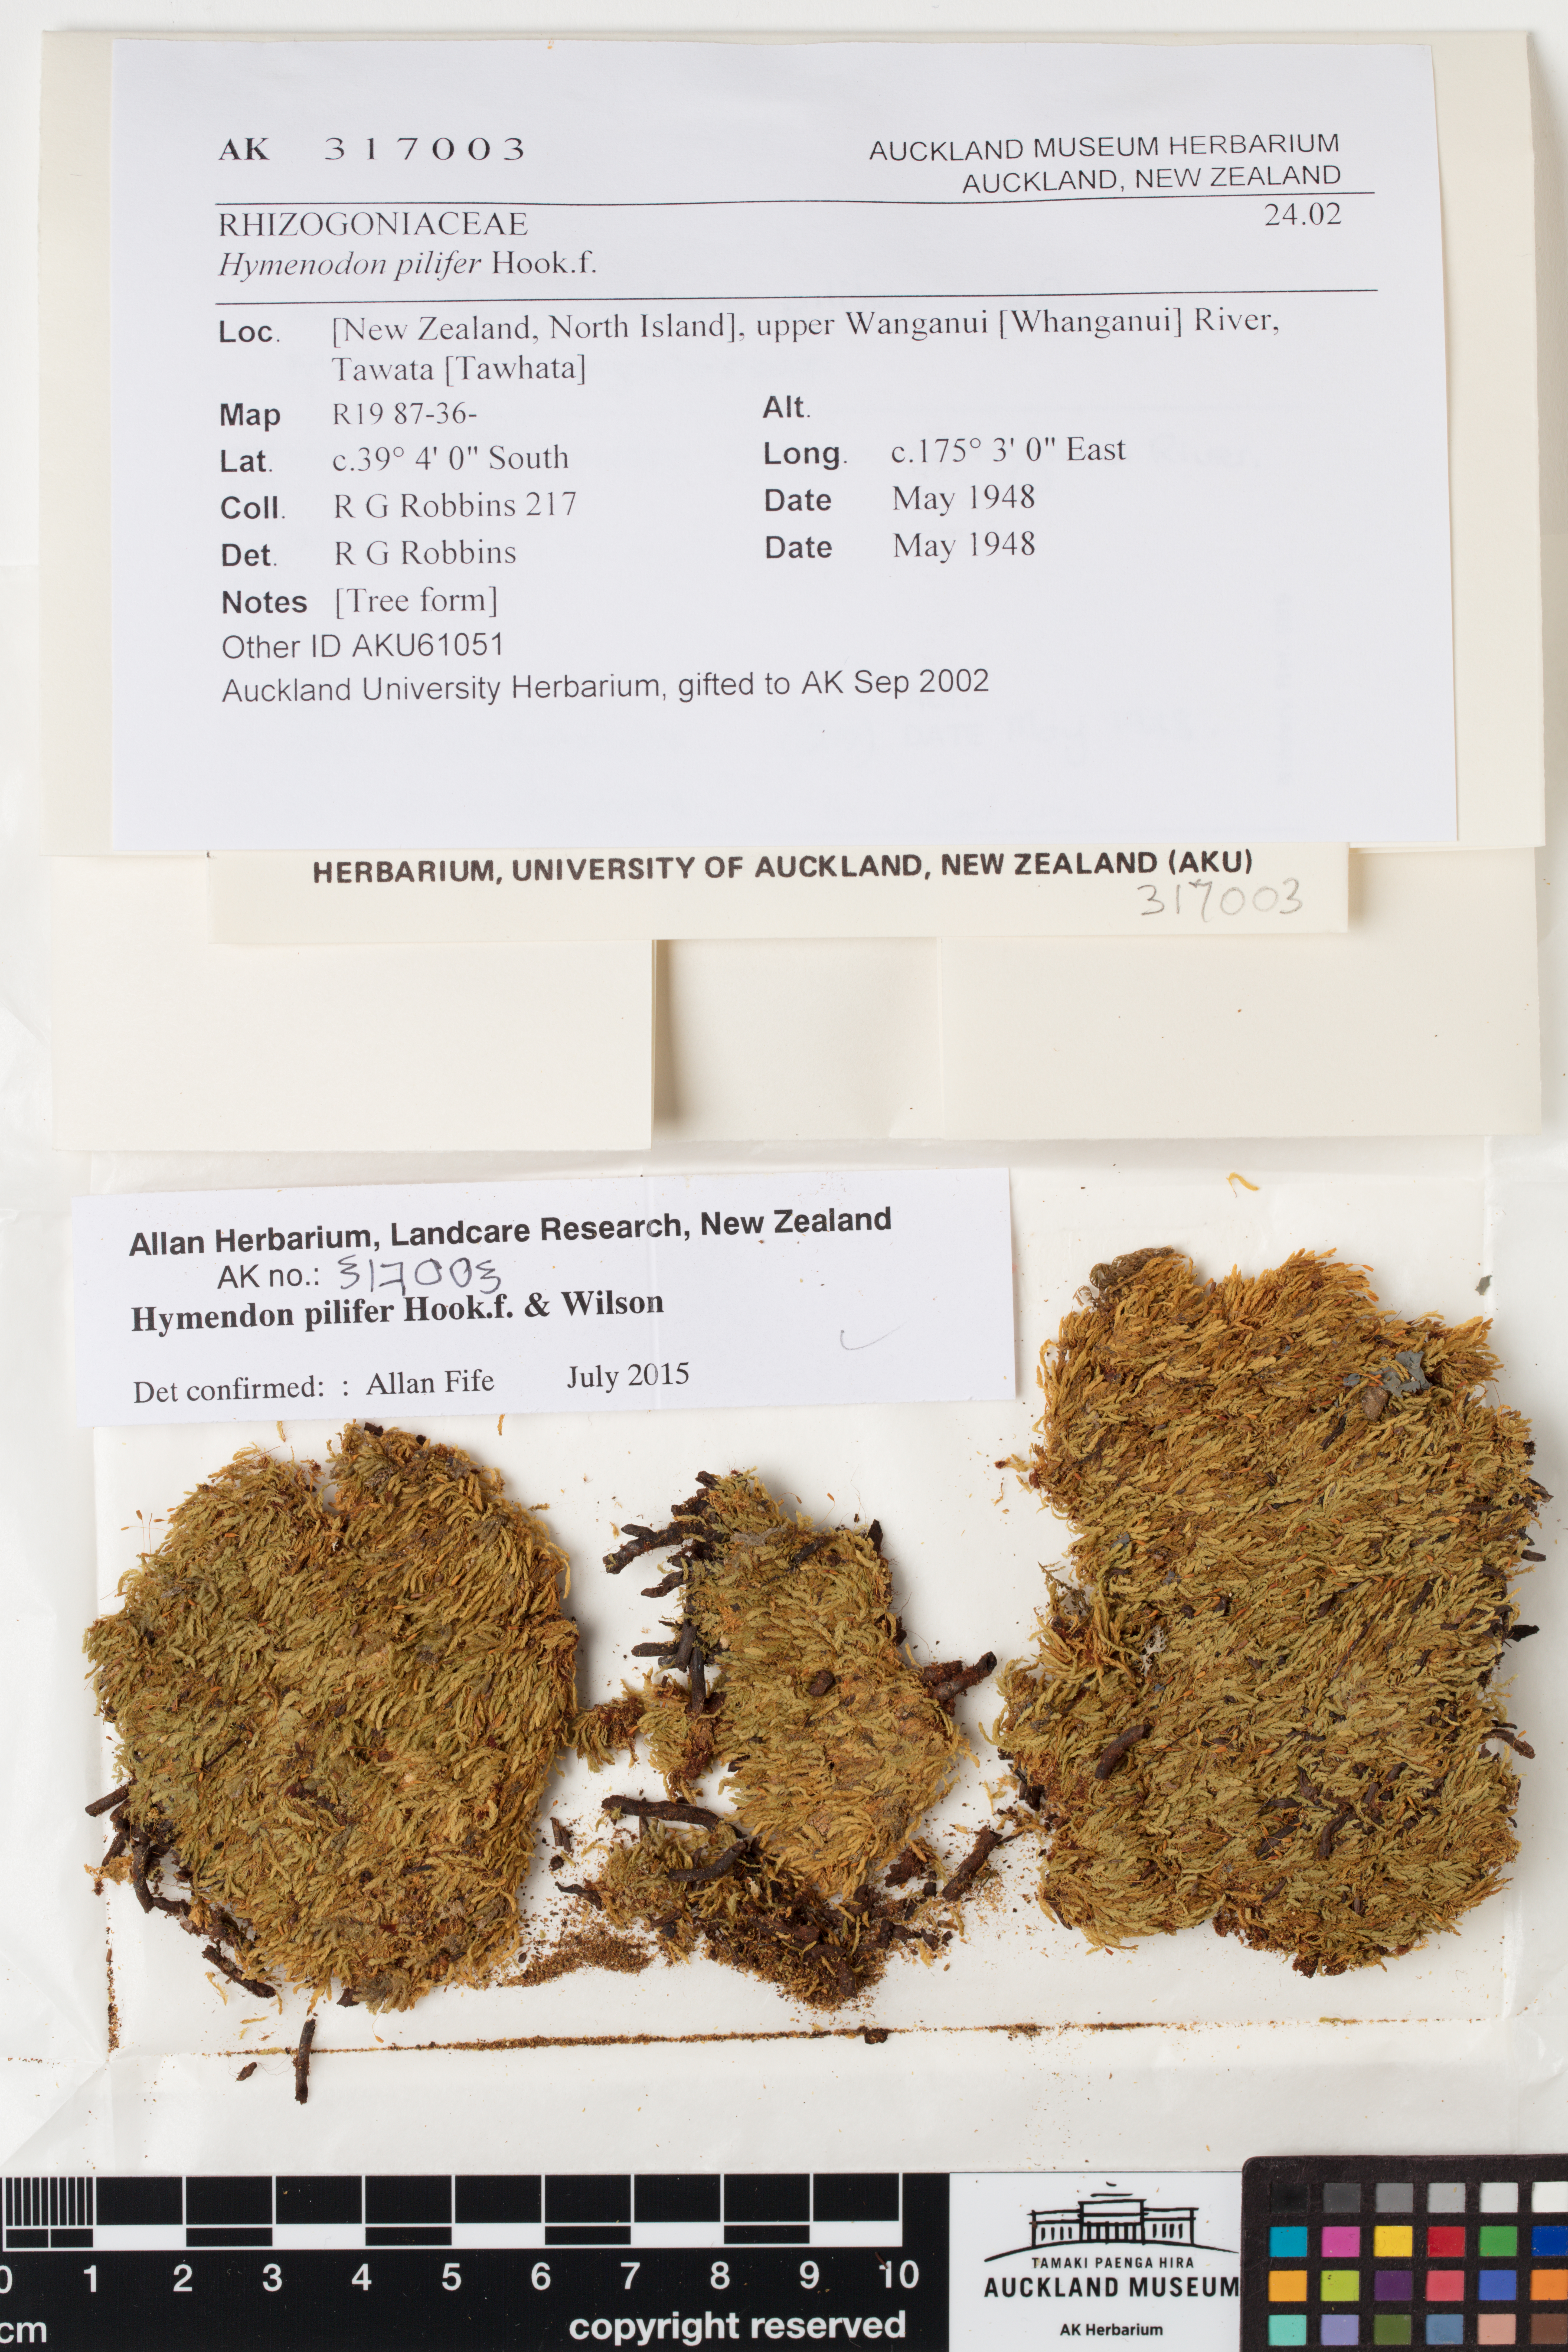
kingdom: Plantae
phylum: Bryophyta
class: Bryopsida
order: Orthodontiales
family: Orthodontiaceae
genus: Hymenodon
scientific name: Hymenodon pilifer
